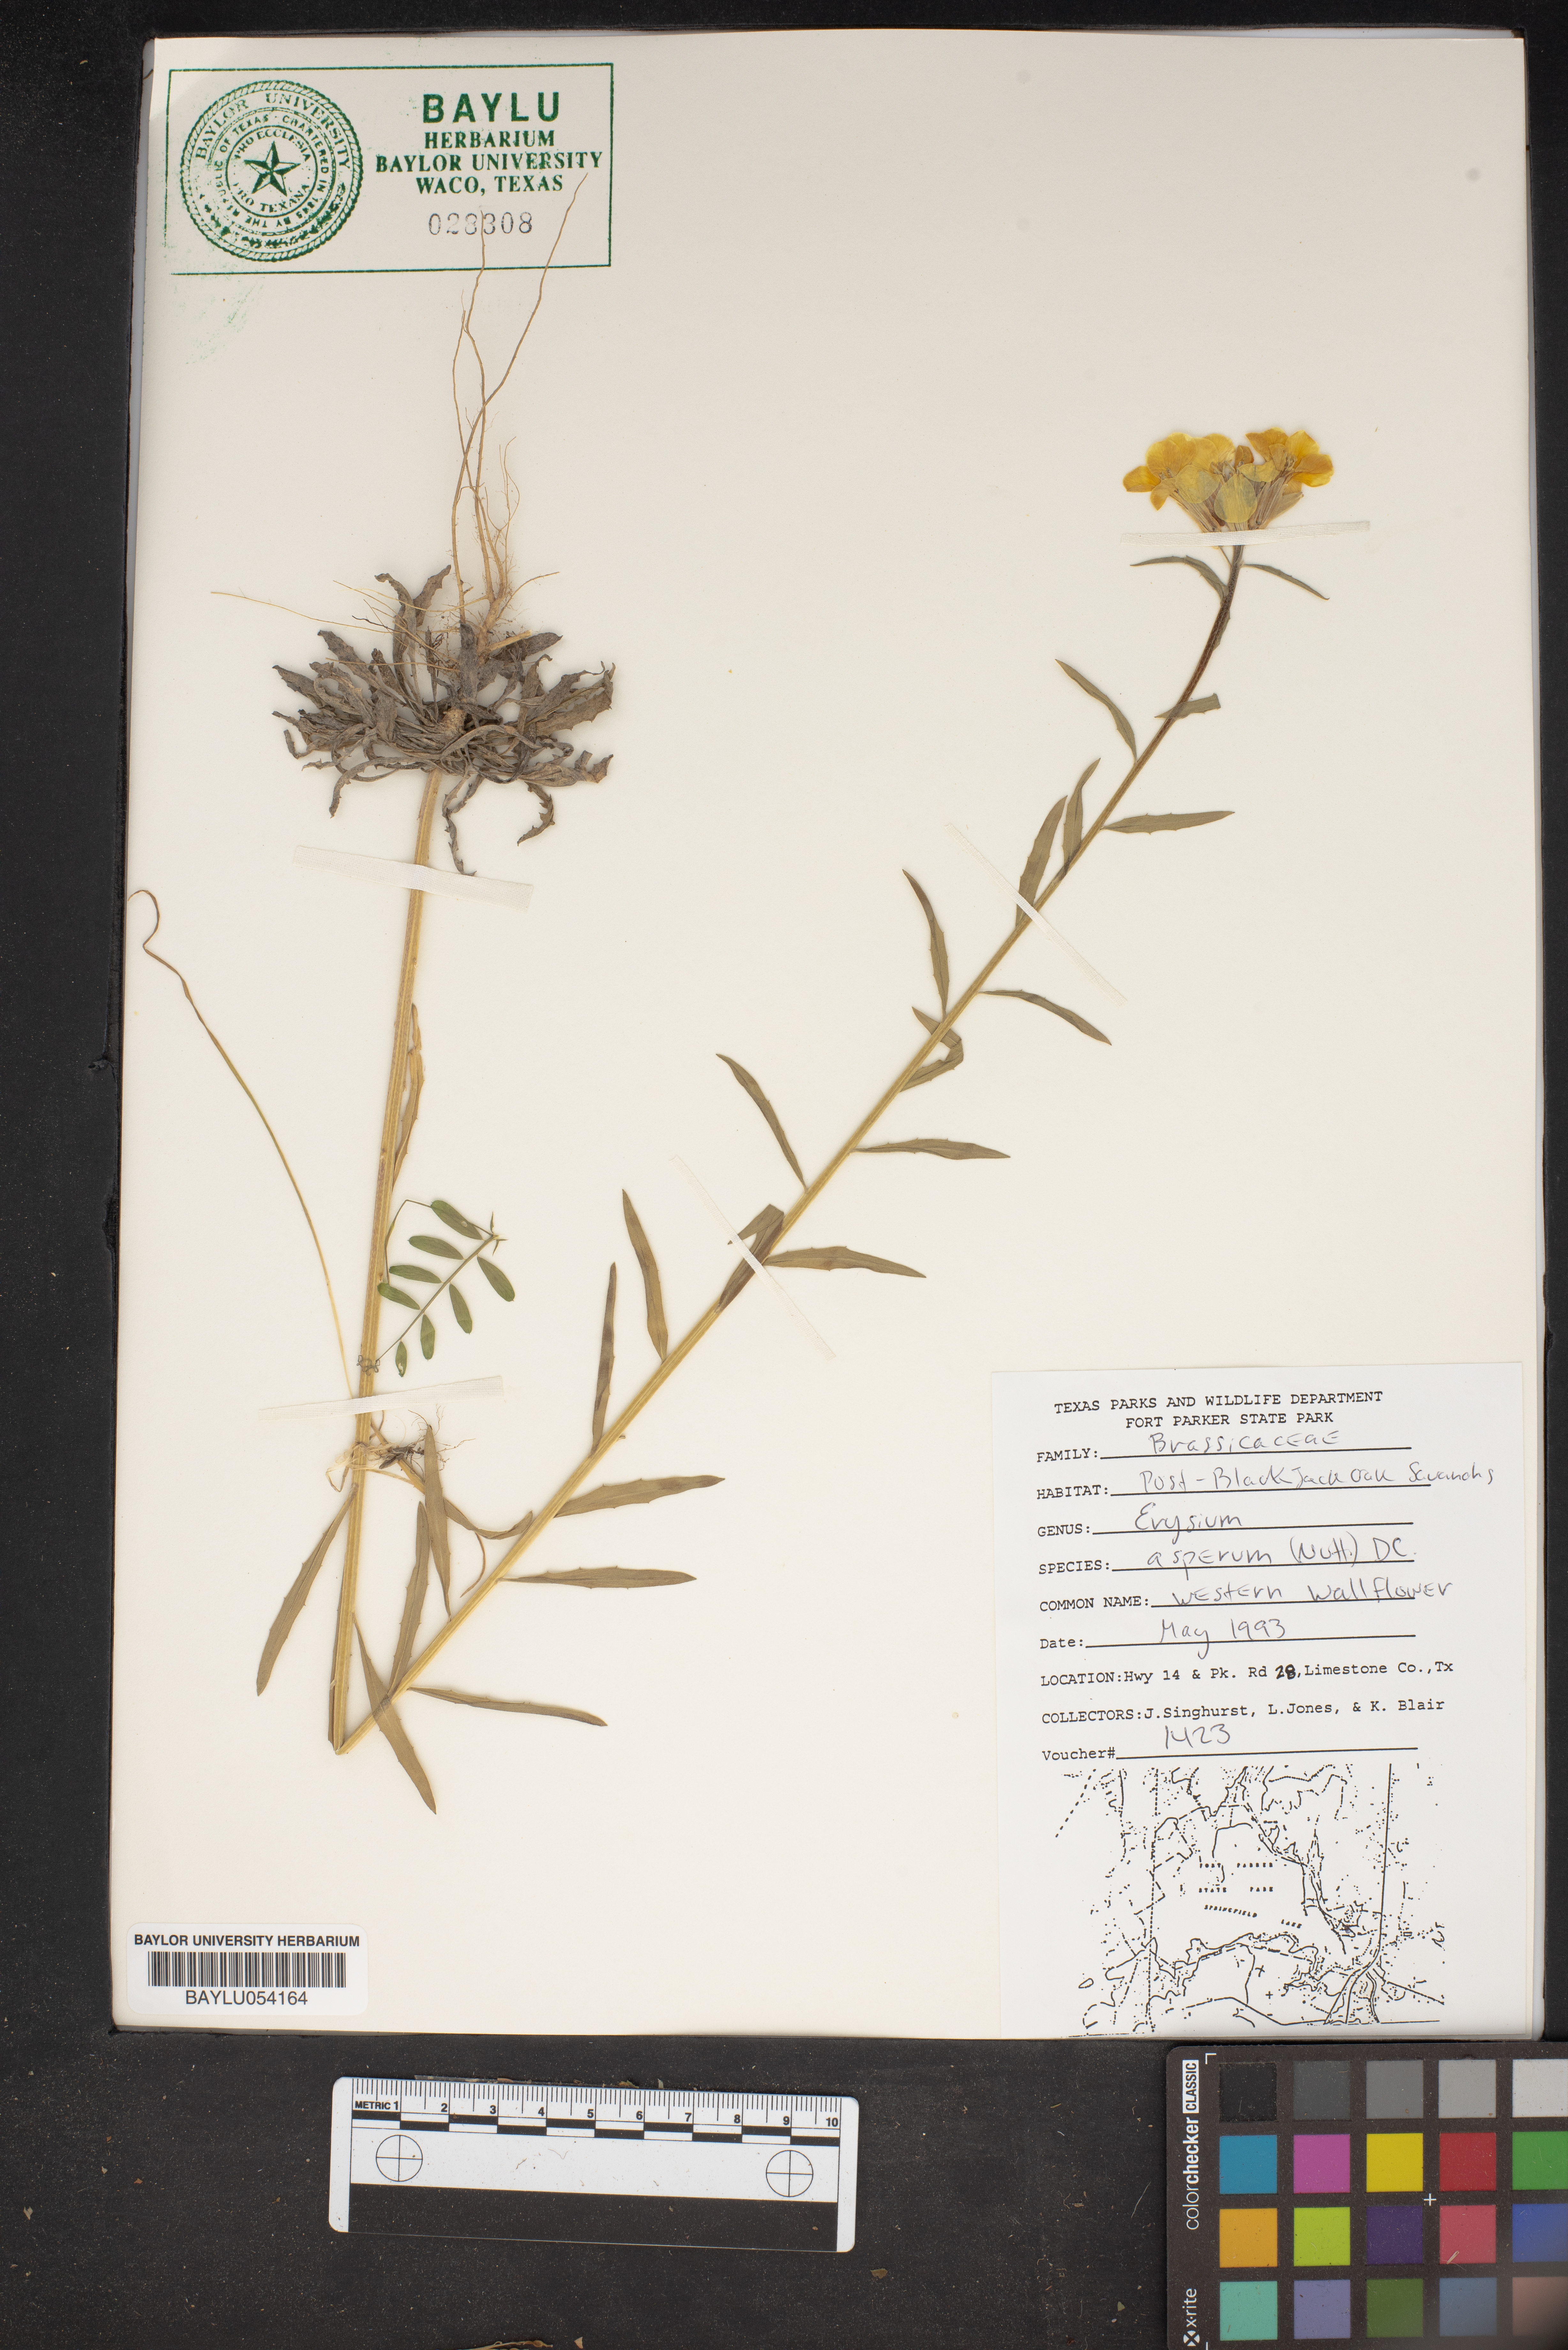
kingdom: Plantae
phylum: Tracheophyta
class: Magnoliopsida
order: Brassicales
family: Brassicaceae
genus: Erysimum
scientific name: Erysimum asperum
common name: Western wallflower
